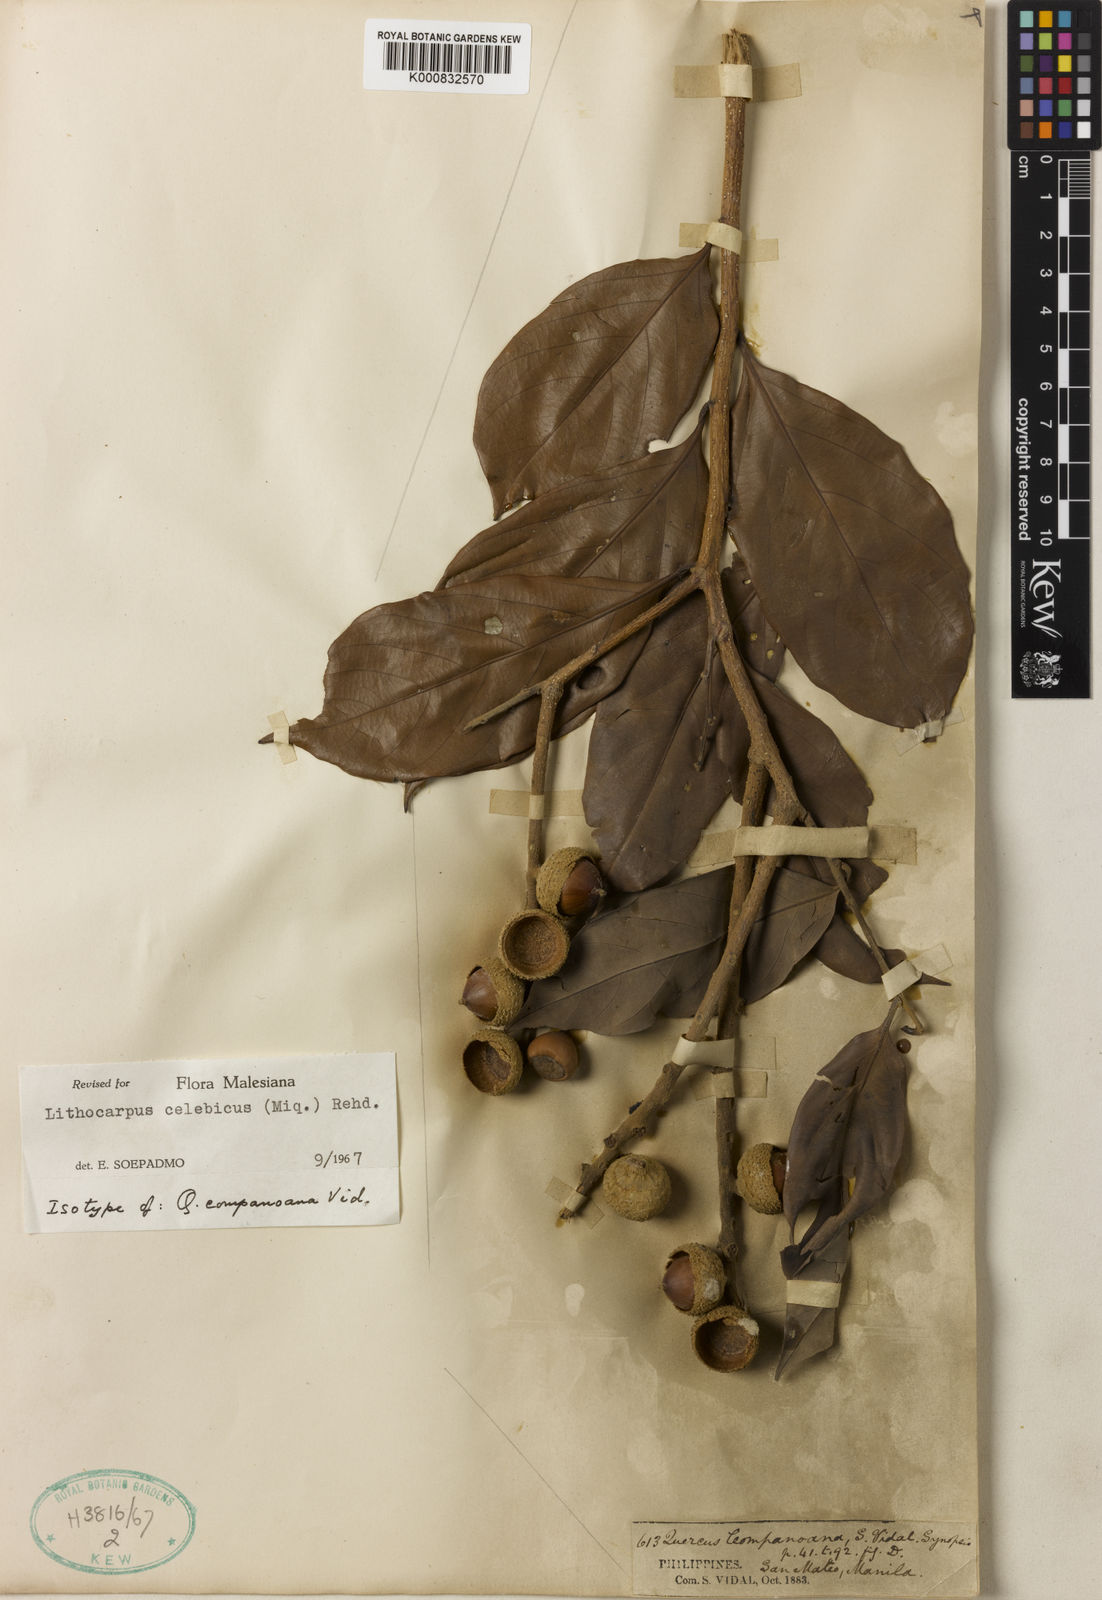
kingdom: Plantae
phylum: Tracheophyta
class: Magnoliopsida
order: Fagales
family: Fagaceae
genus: Lithocarpus
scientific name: Lithocarpus celebicus
